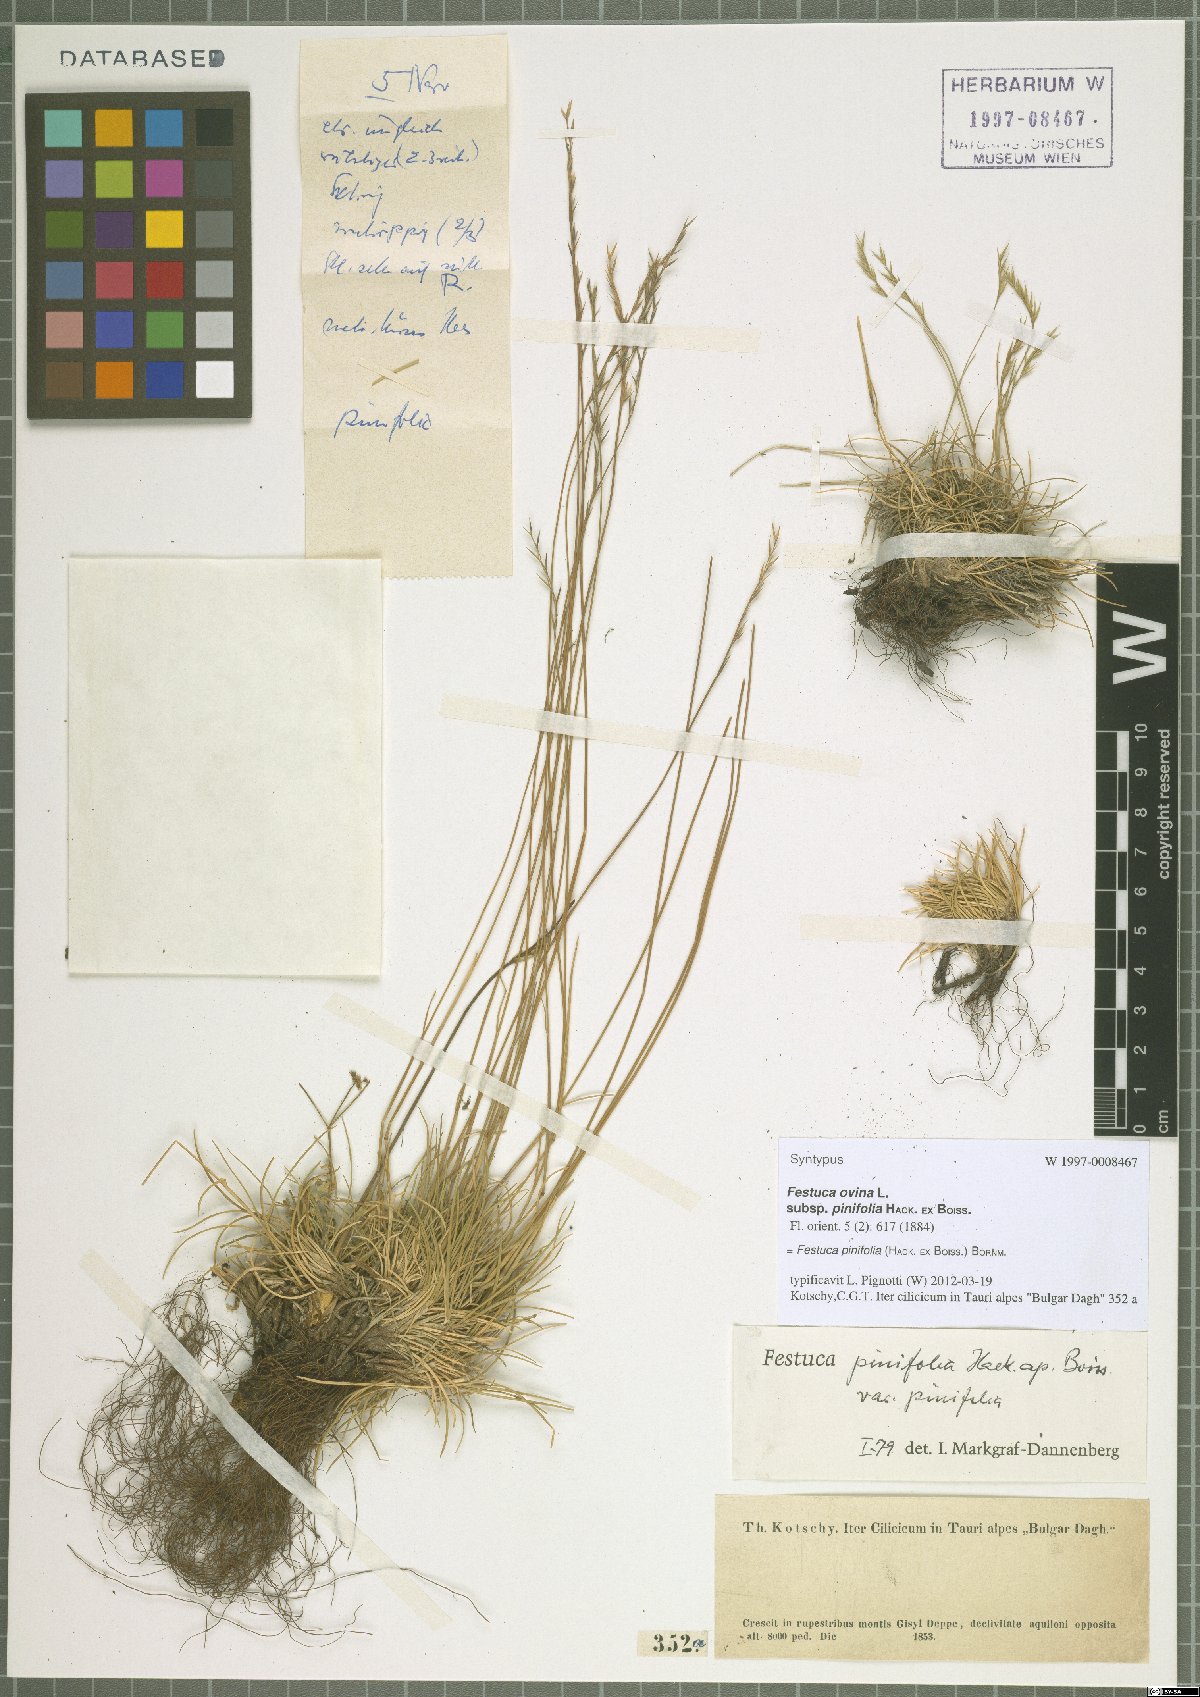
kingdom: Plantae
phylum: Tracheophyta
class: Liliopsida
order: Poales
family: Poaceae
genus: Festuca
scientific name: Festuca pinifolia
